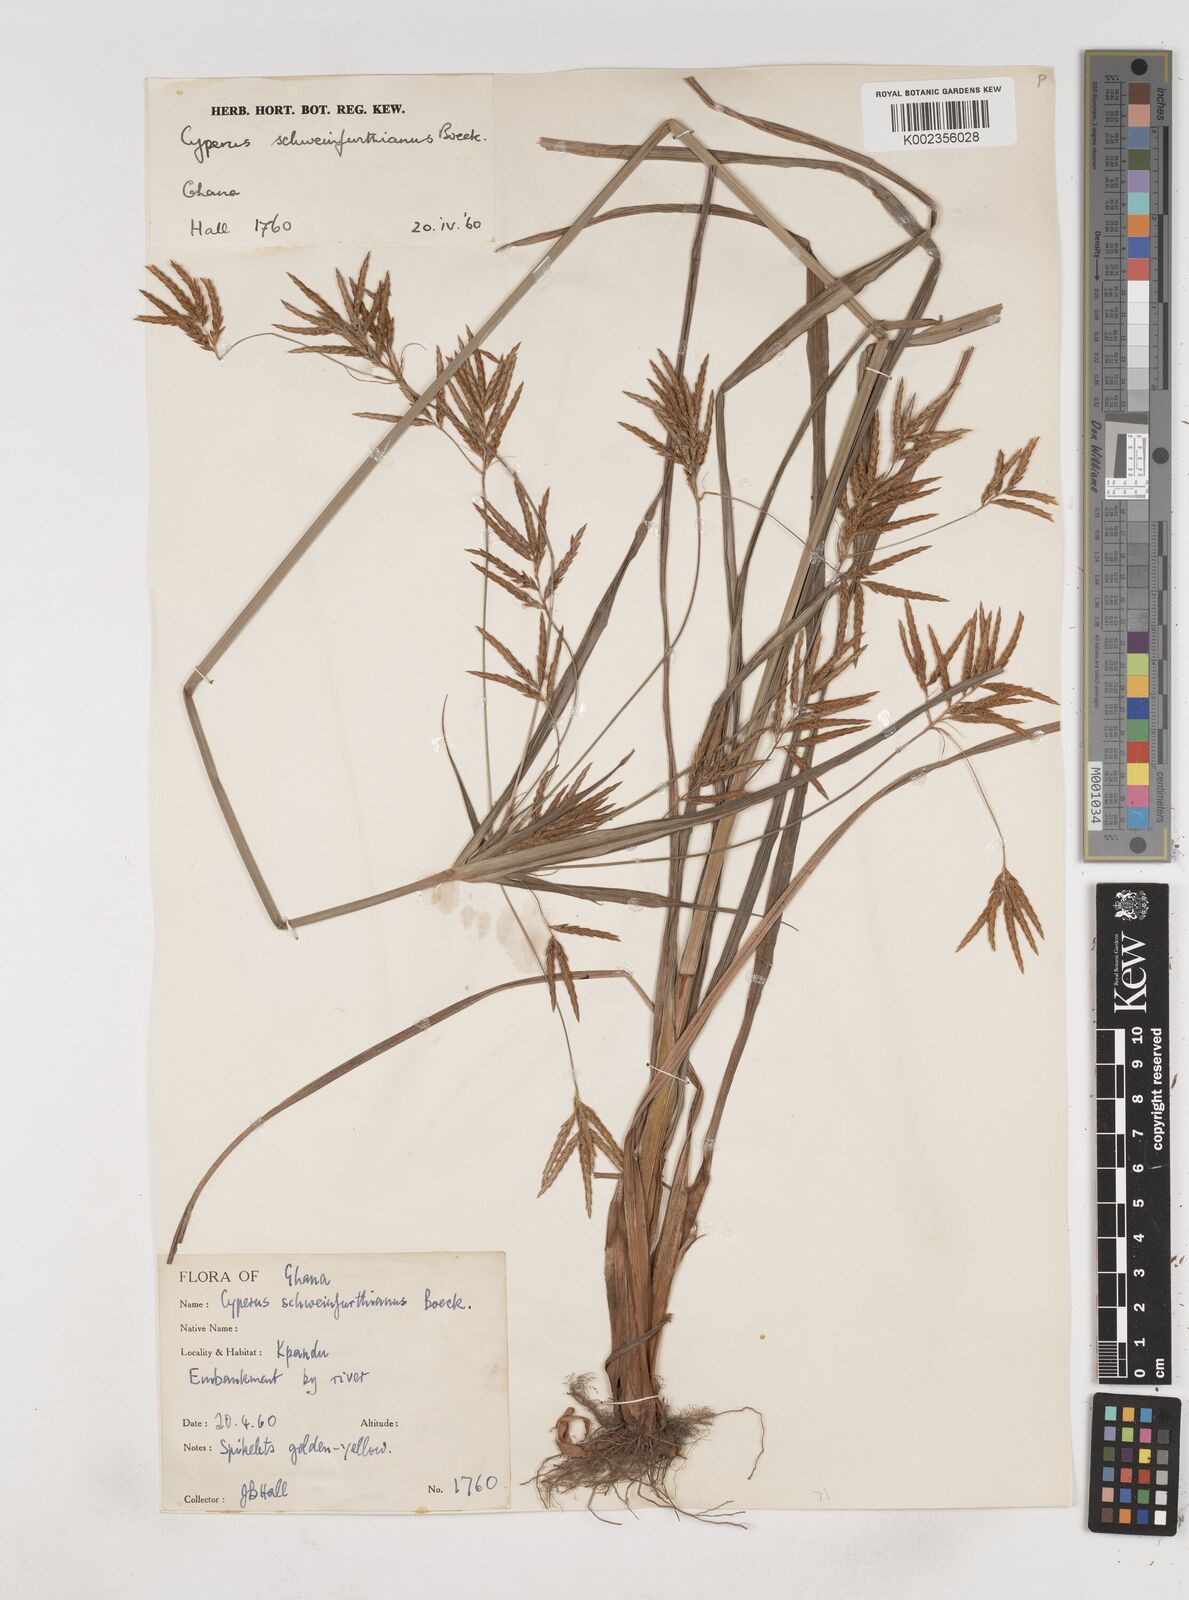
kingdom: Plantae
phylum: Tracheophyta
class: Liliopsida
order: Poales
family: Cyperaceae
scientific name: Cyperaceae
